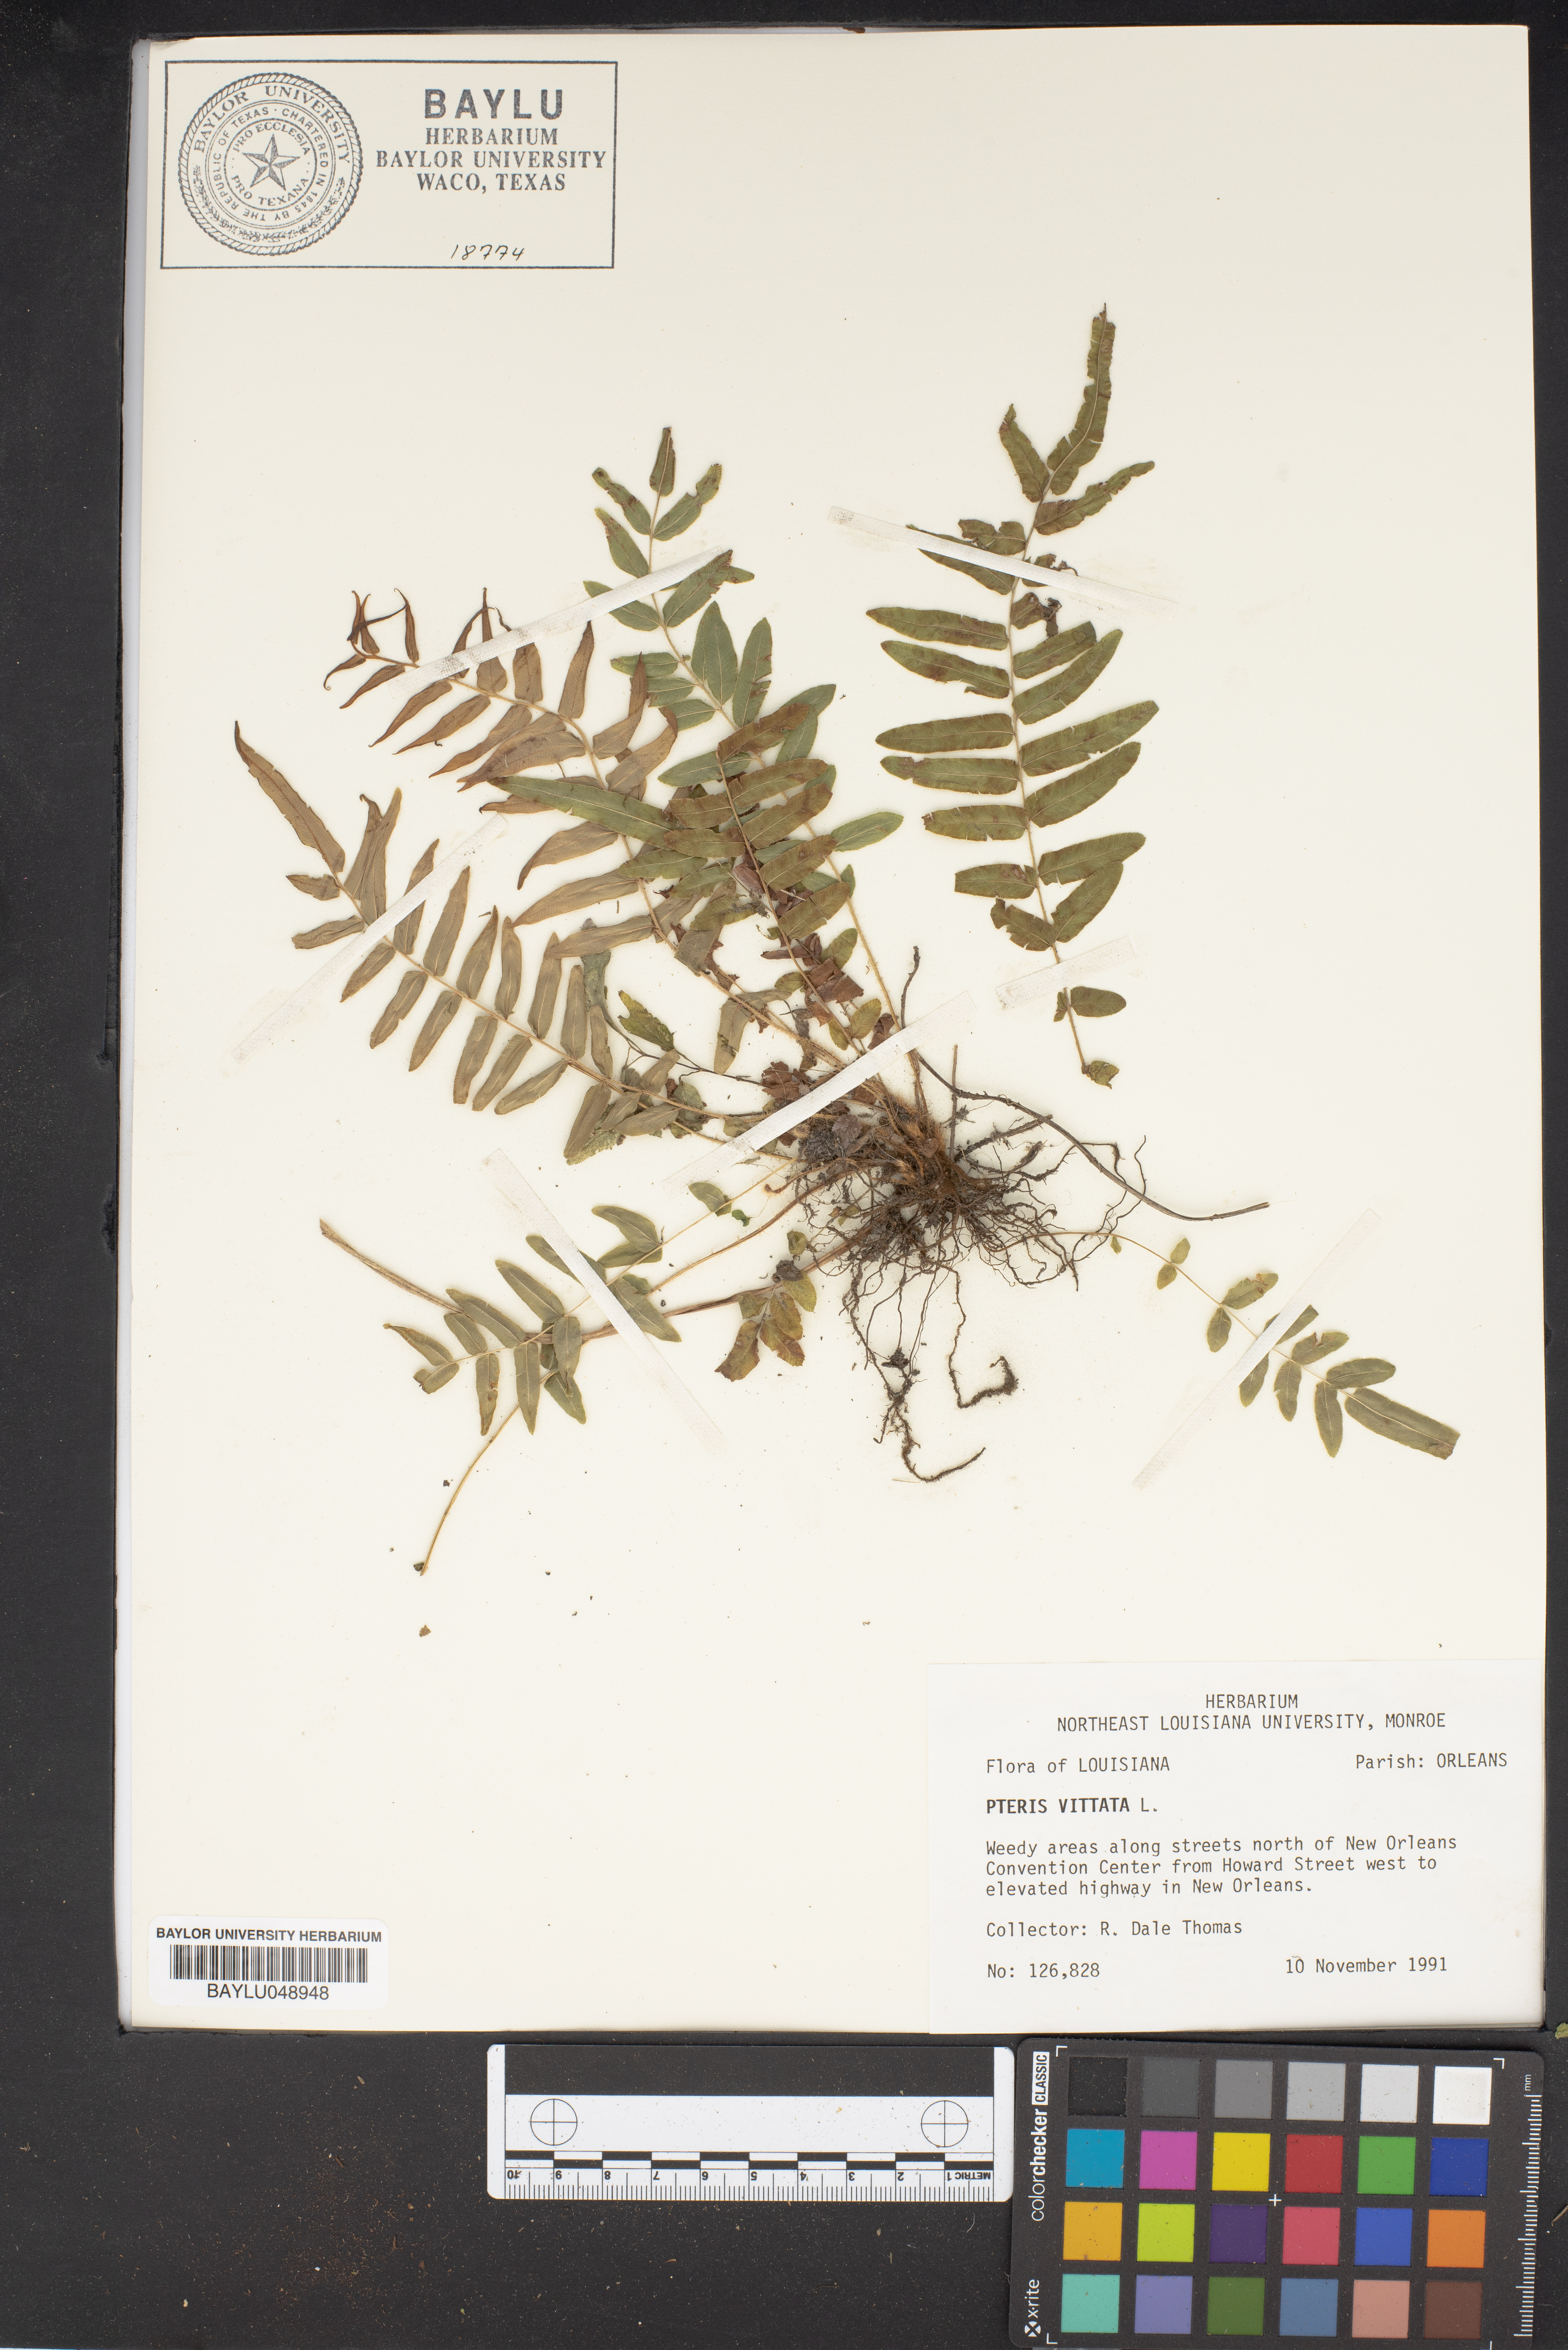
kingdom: Plantae
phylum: Tracheophyta
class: Polypodiopsida
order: Polypodiales
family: Pteridaceae
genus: Pteris
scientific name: Pteris vittata
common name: Ladder brake
